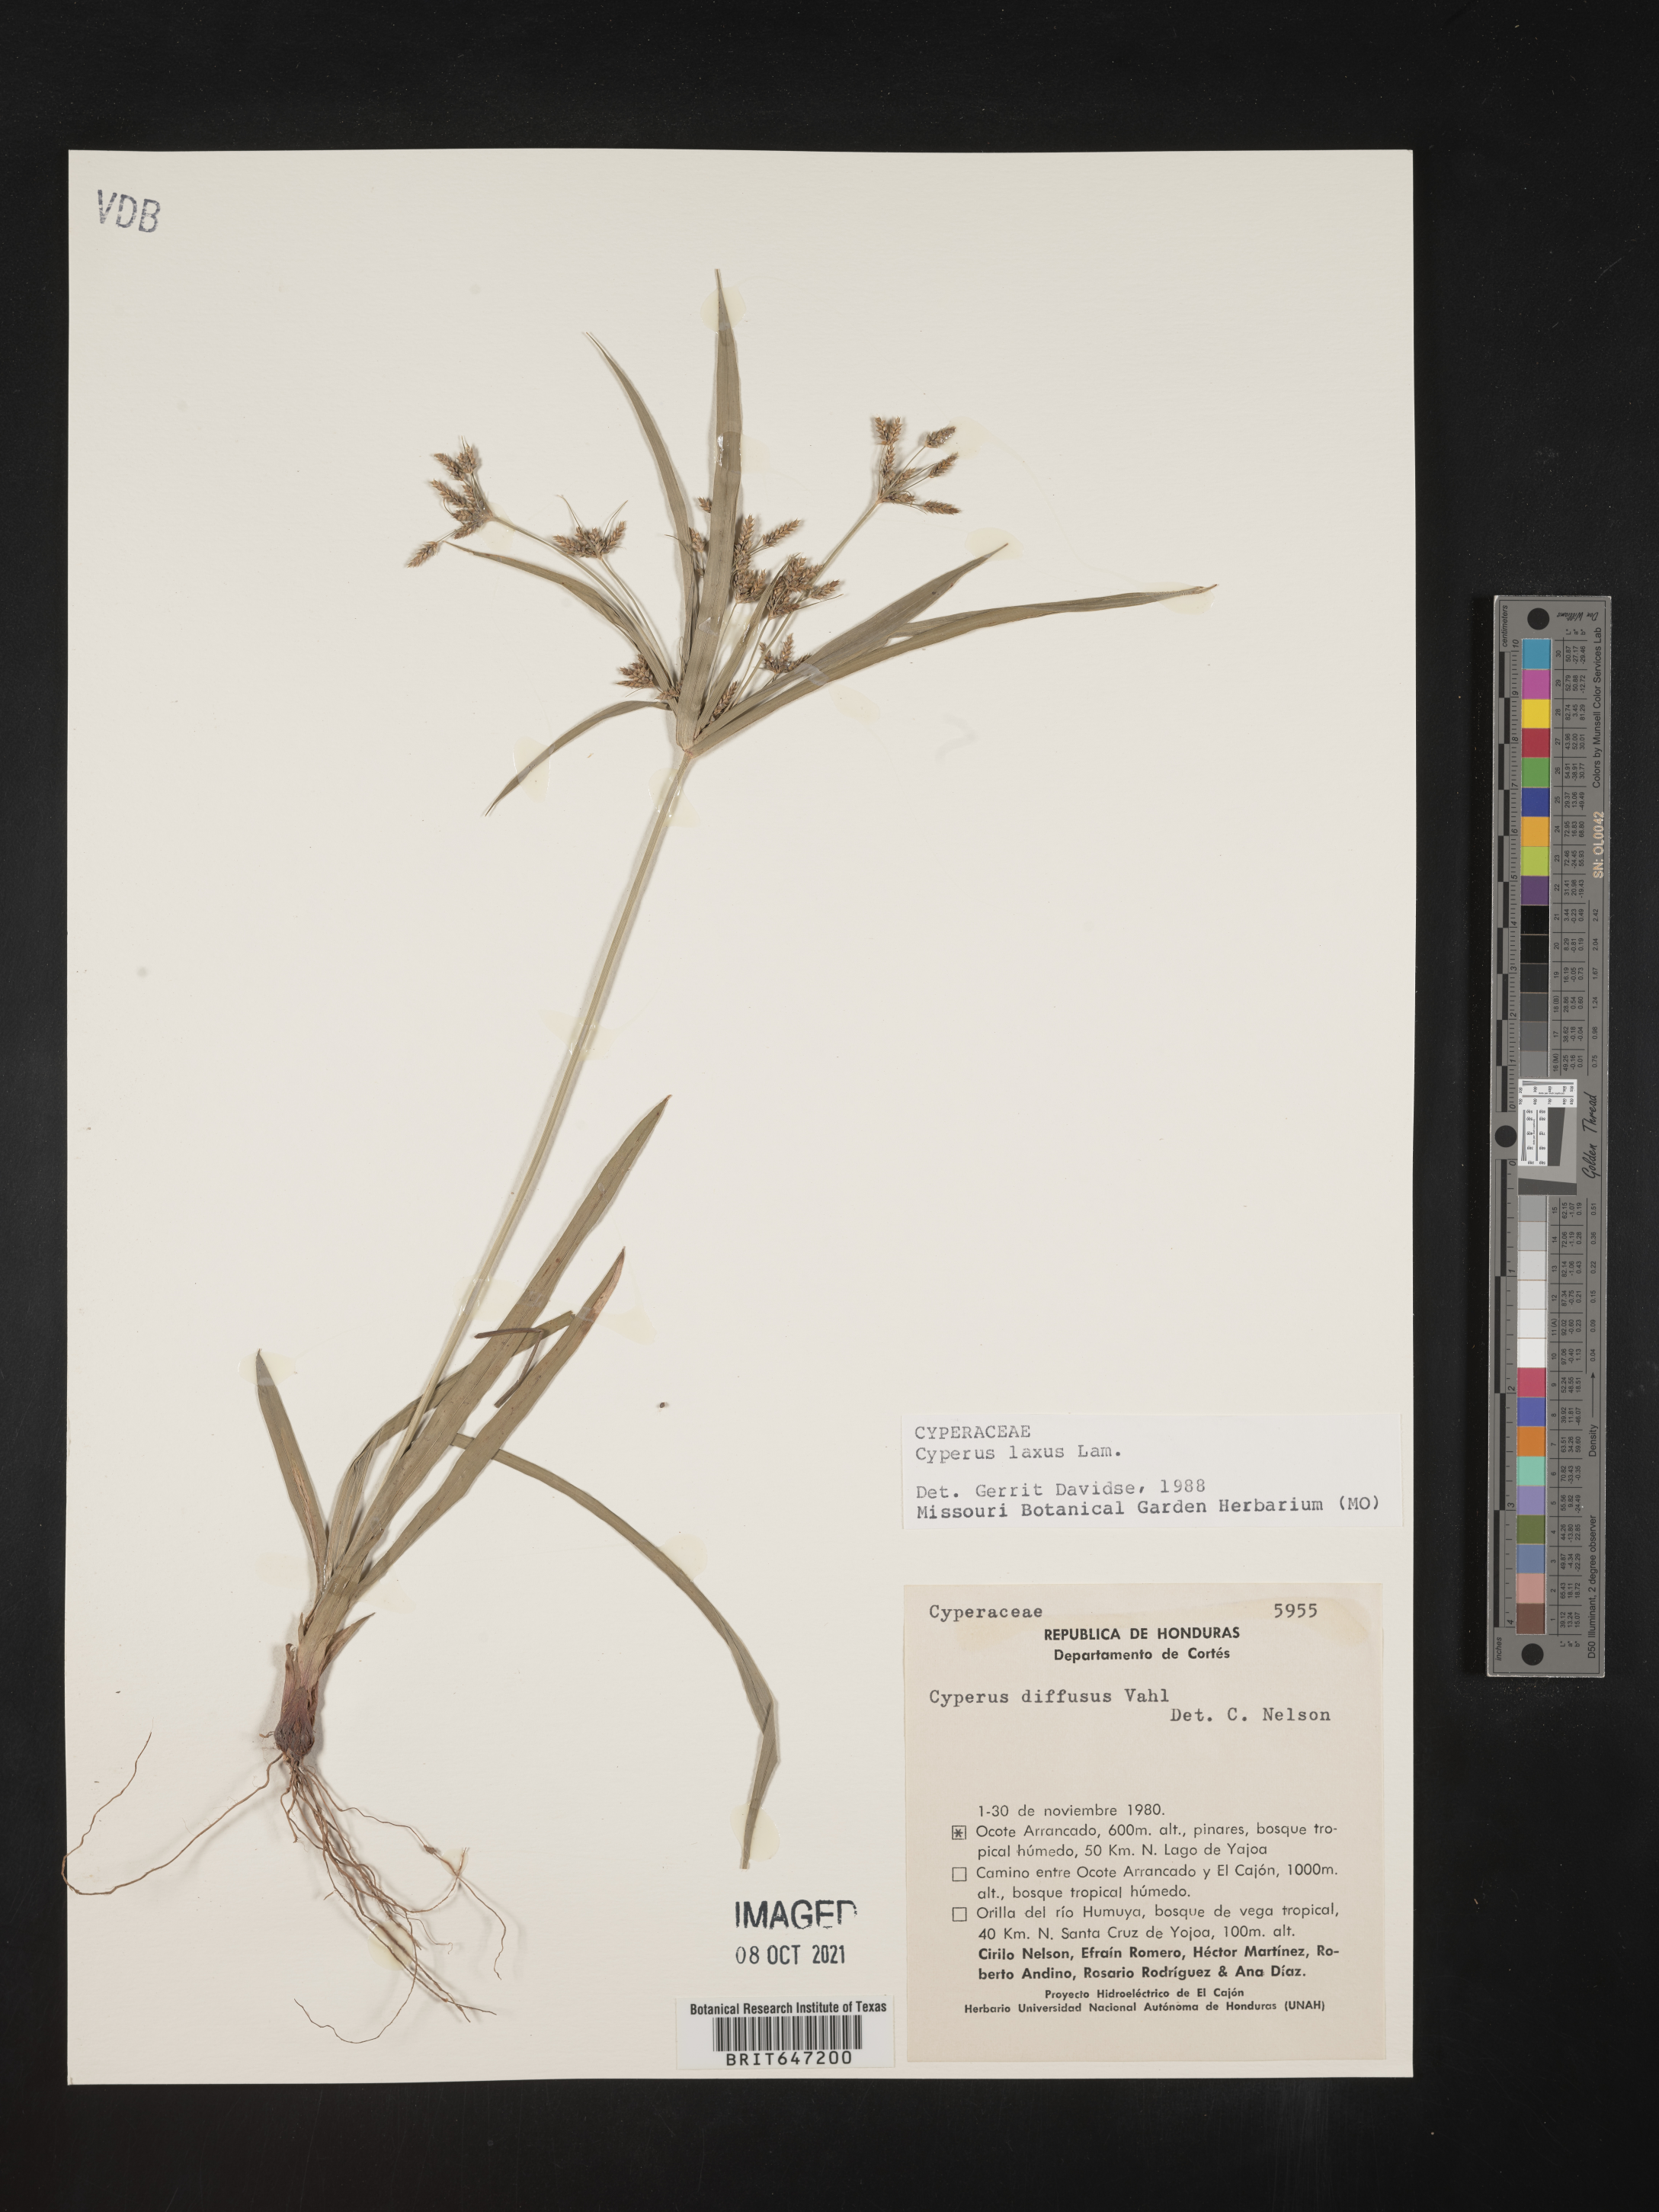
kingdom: Plantae
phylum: Tracheophyta
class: Liliopsida
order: Poales
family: Cyperaceae
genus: Cyperus
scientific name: Cyperus laxus
